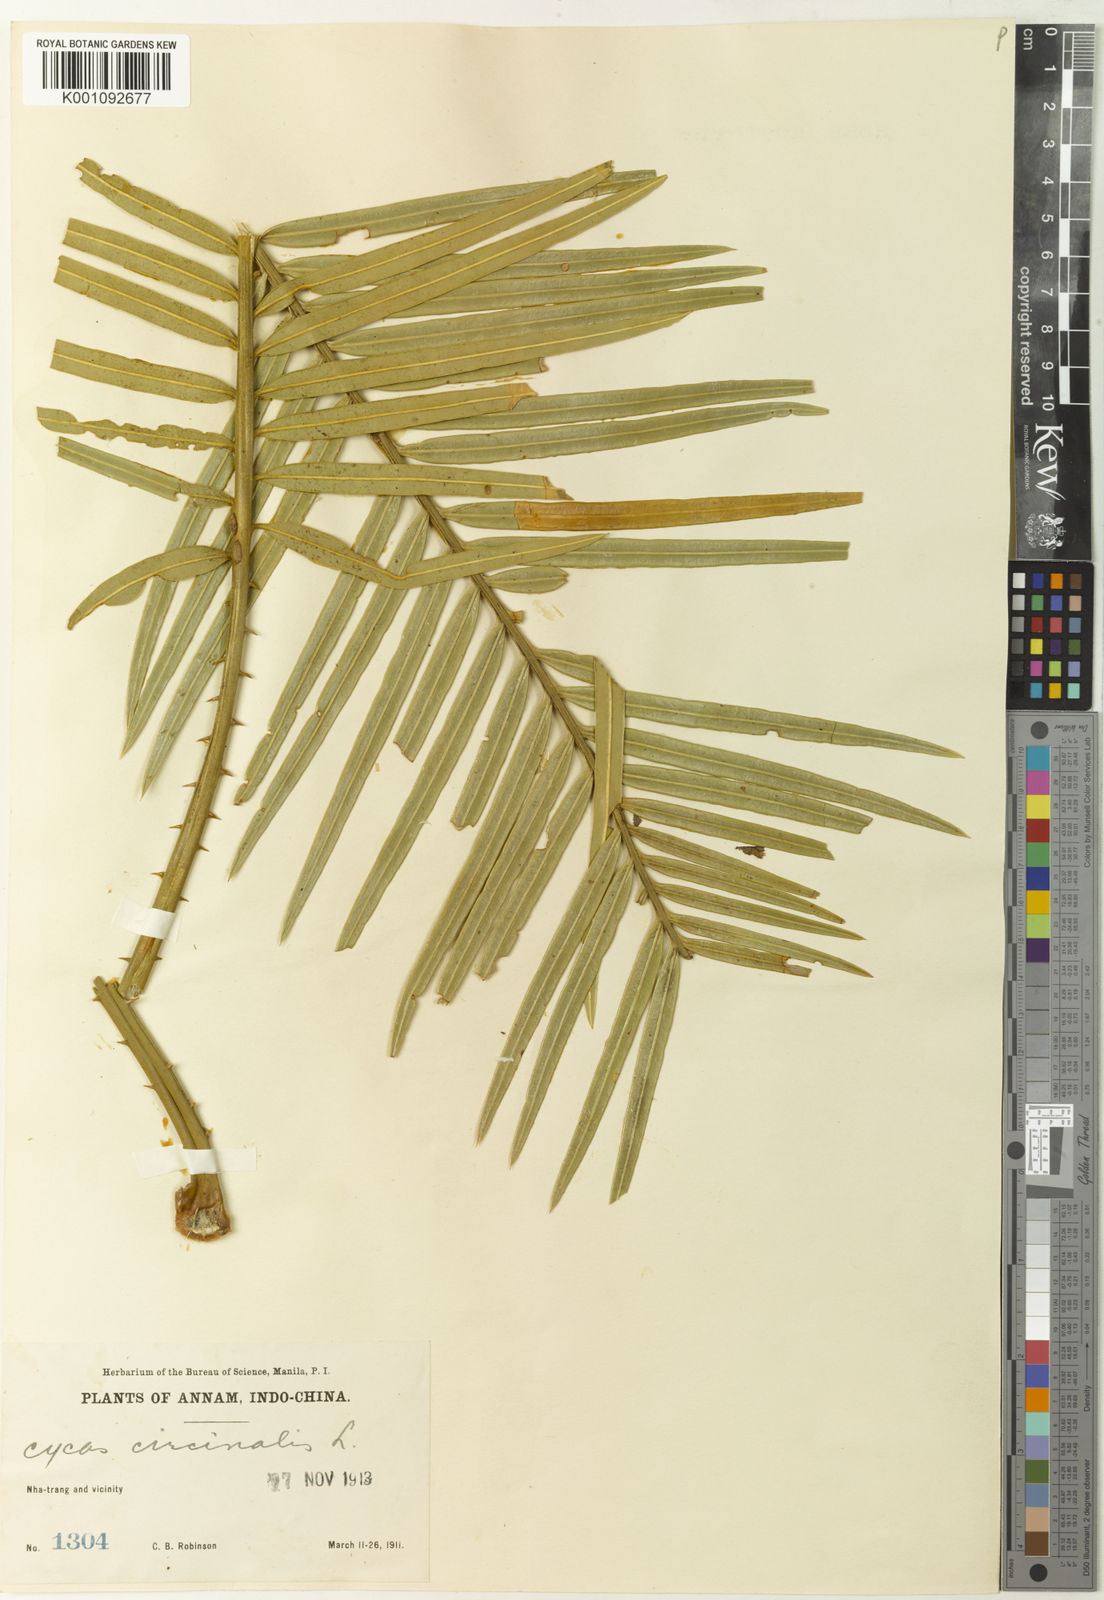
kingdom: Plantae
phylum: Tracheophyta
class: Cycadopsida
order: Cycadales
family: Cycadaceae
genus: Cycas
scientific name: Cycas circinalis
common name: Queen sago
